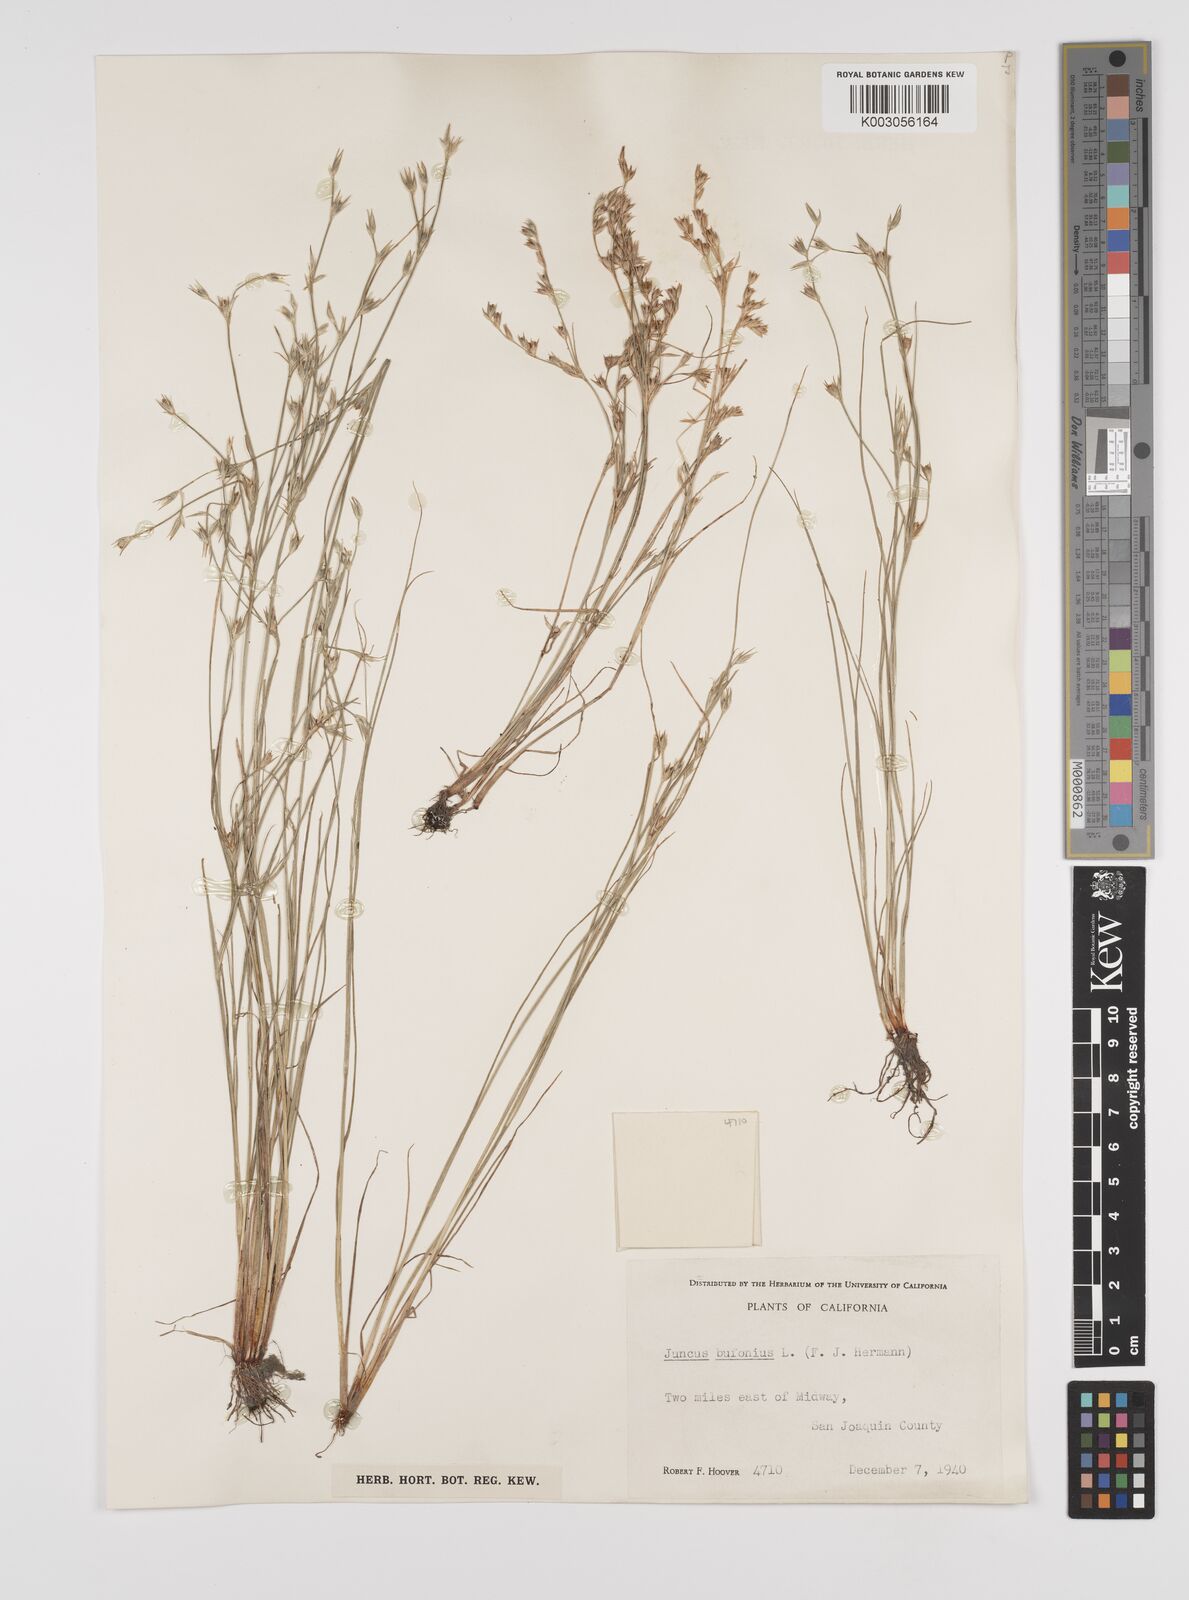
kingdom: Plantae
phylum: Tracheophyta
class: Liliopsida
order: Poales
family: Juncaceae
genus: Juncus
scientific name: Juncus bufonius
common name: Toad rush
